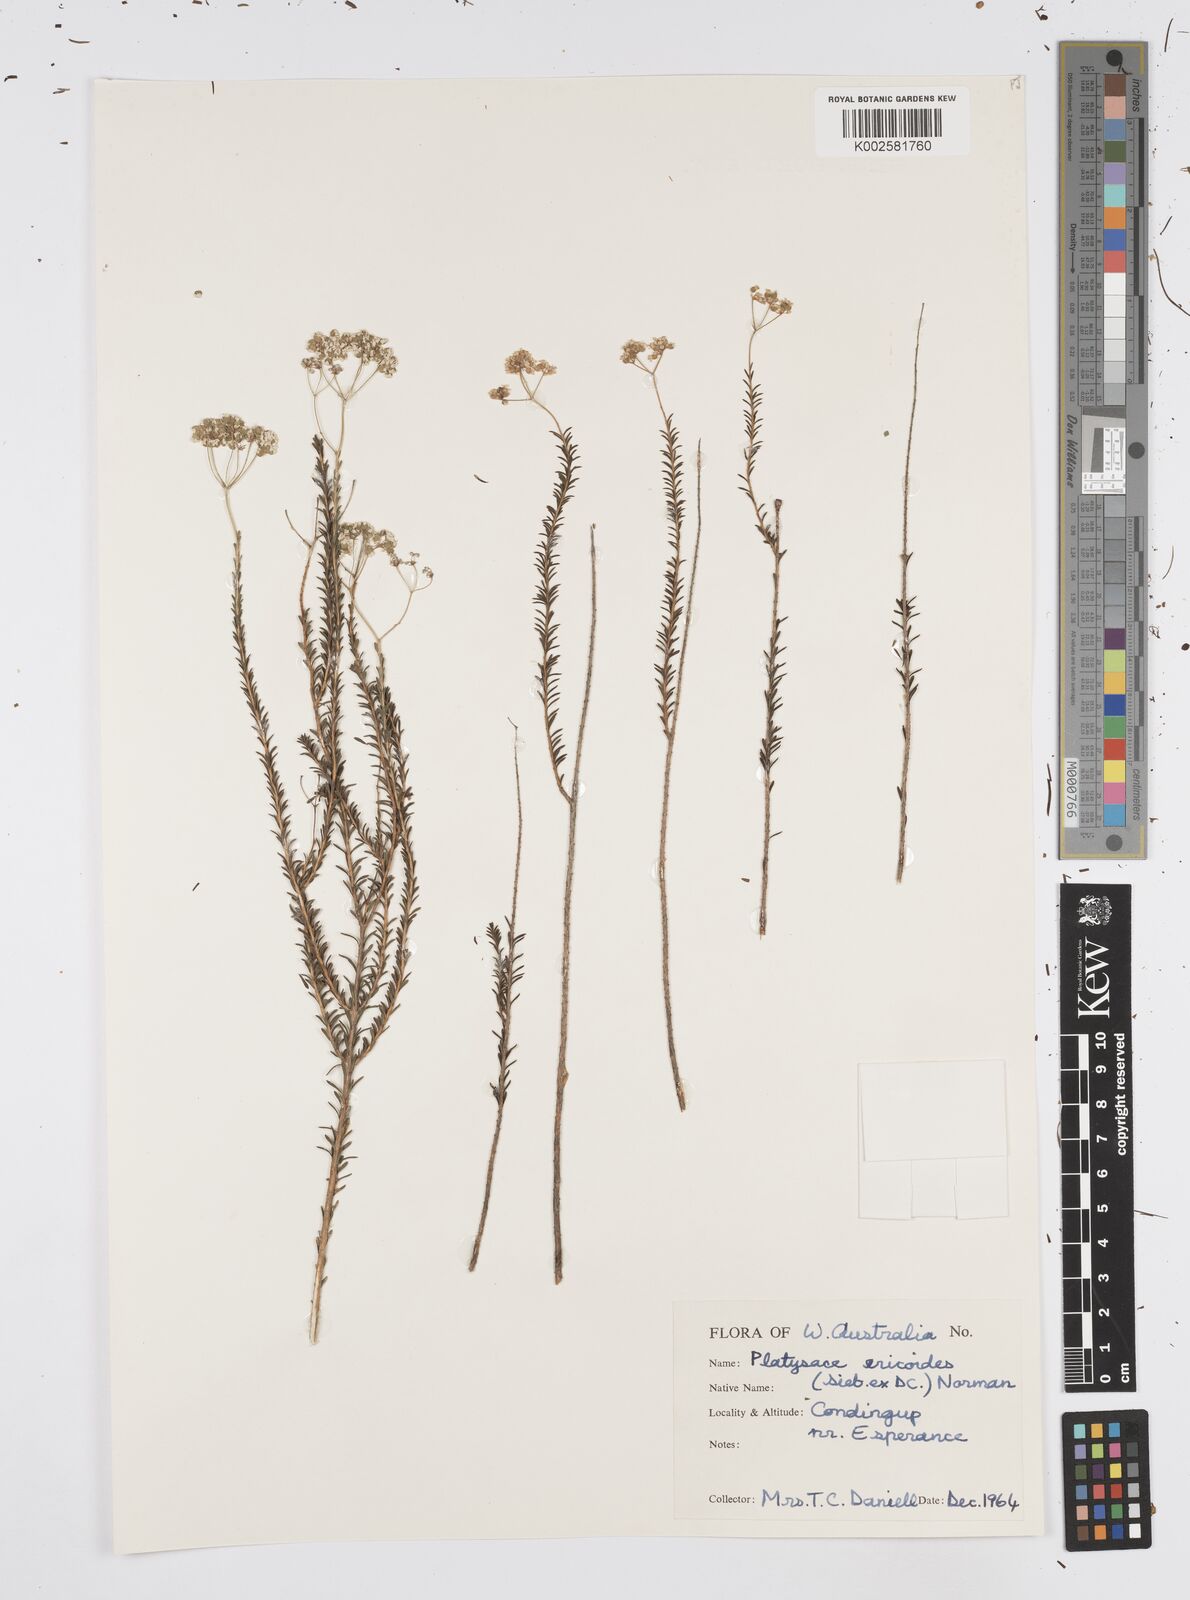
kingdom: Plantae
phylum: Tracheophyta
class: Magnoliopsida
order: Apiales
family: Apiaceae
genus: Platysace
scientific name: Platysace ericoides
